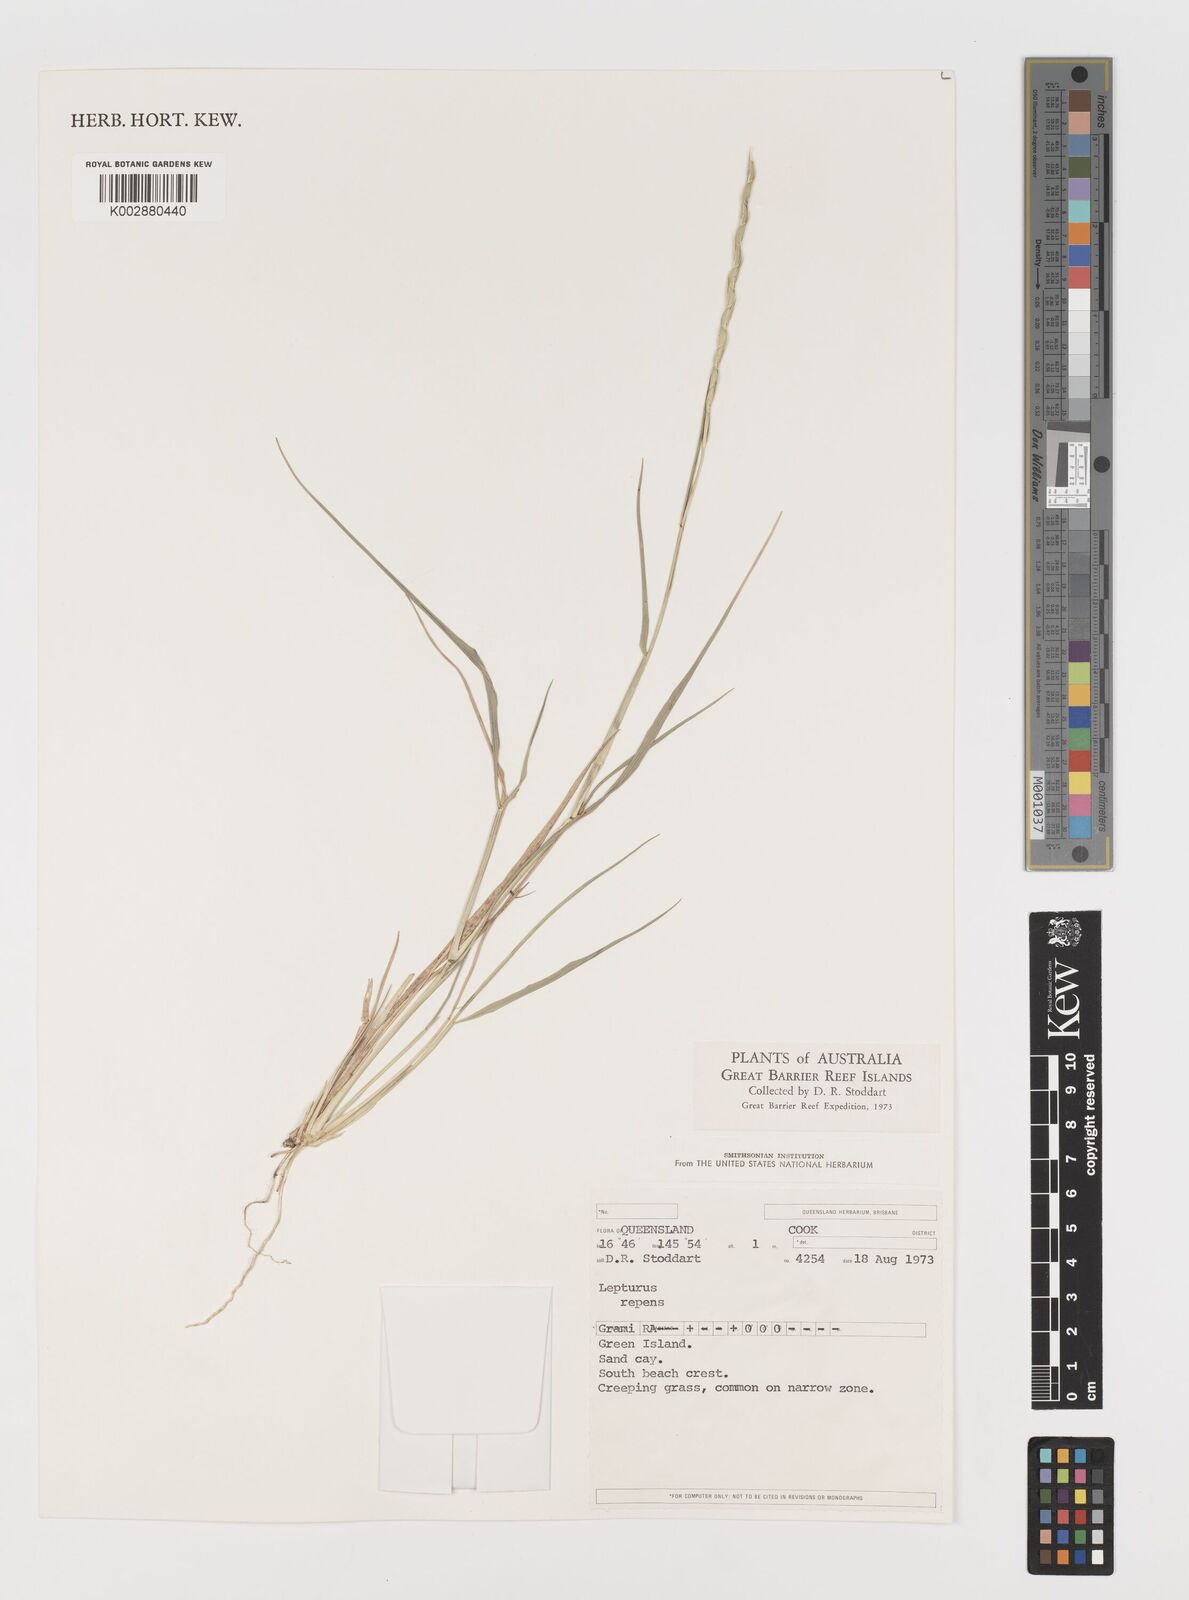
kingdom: Plantae
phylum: Tracheophyta
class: Liliopsida
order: Poales
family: Poaceae
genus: Lepturus
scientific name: Lepturus repens
